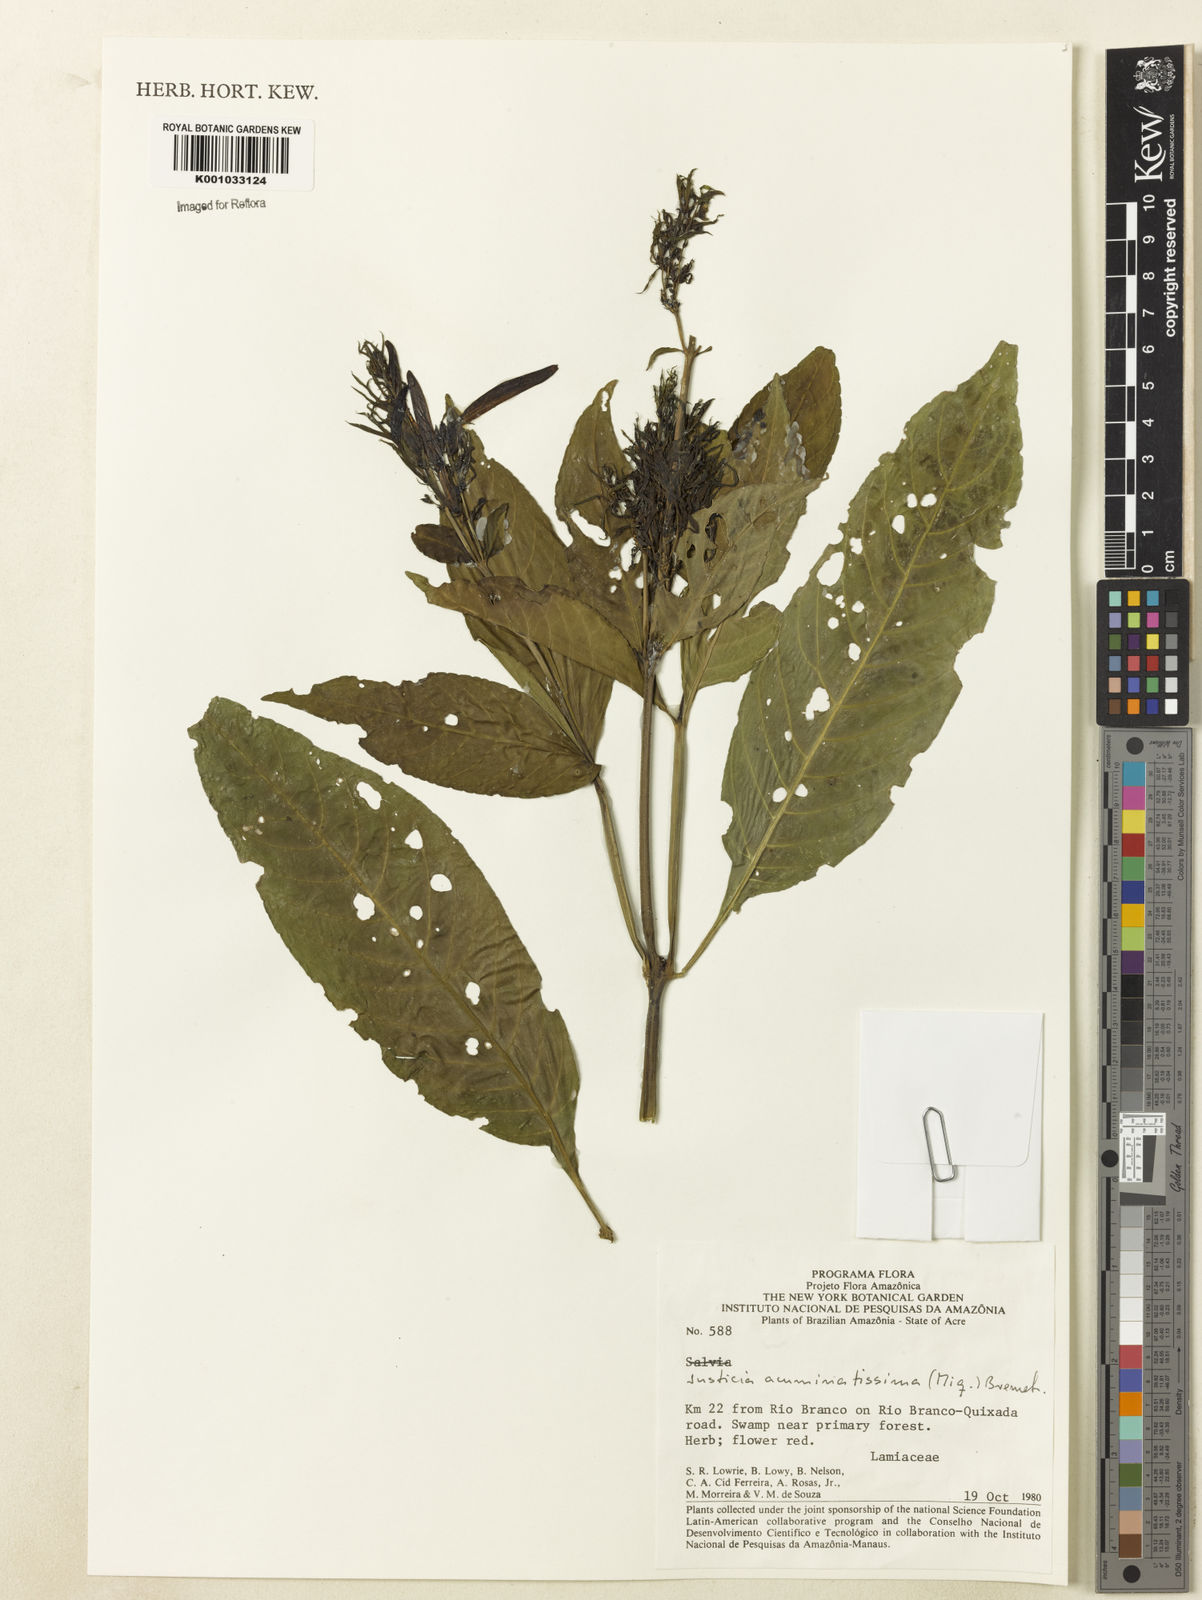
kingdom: Plantae
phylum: Tracheophyta
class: Magnoliopsida
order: Lamiales
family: Acanthaceae
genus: Dianthera
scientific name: Dianthera comata
